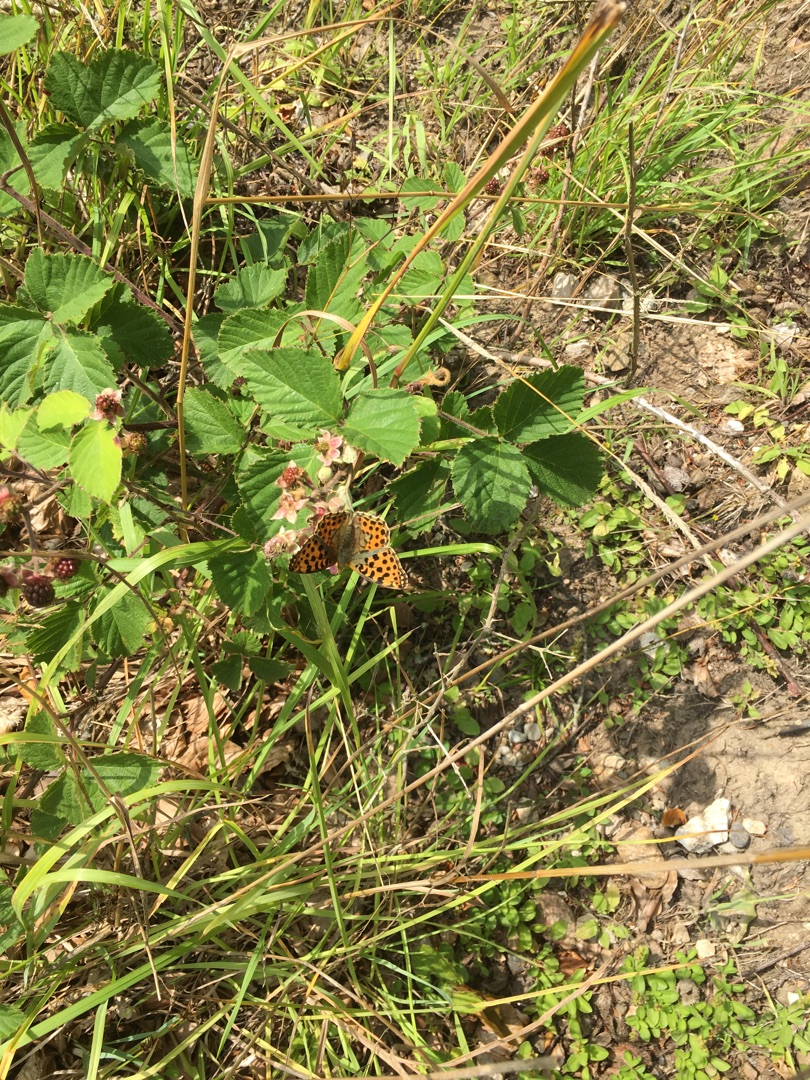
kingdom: Animalia
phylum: Arthropoda
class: Insecta
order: Lepidoptera
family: Nymphalidae
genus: Issoria
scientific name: Issoria lathonia
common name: Storplettet perlemorsommerfugl
